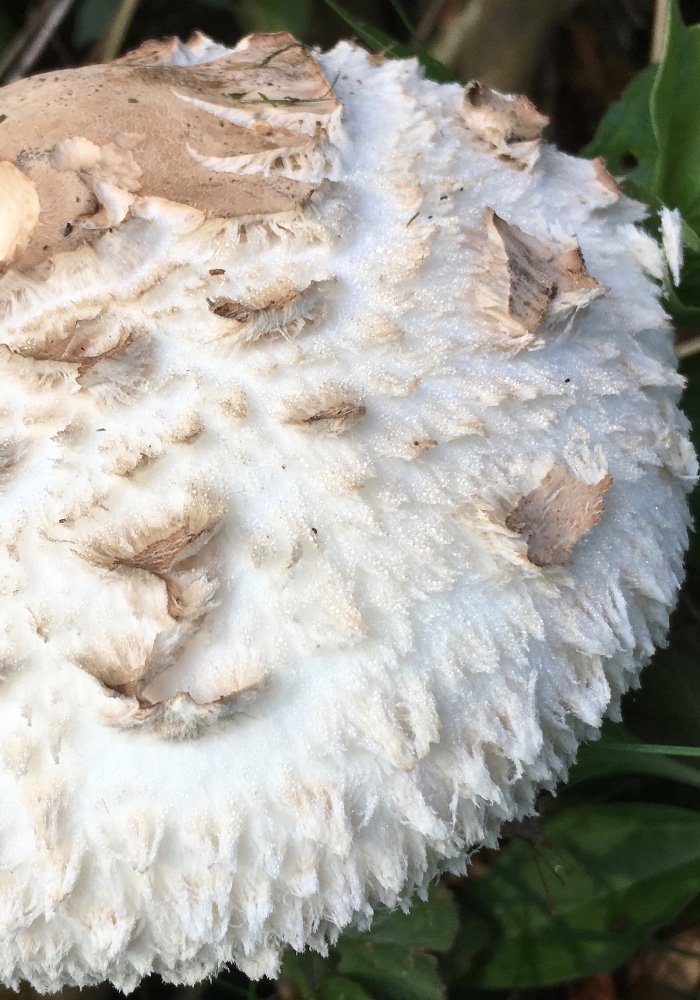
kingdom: Fungi
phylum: Basidiomycota
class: Agaricomycetes
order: Agaricales
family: Agaricaceae
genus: Chlorophyllum
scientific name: Chlorophyllum rhacodes
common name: ægte rabarberhat
